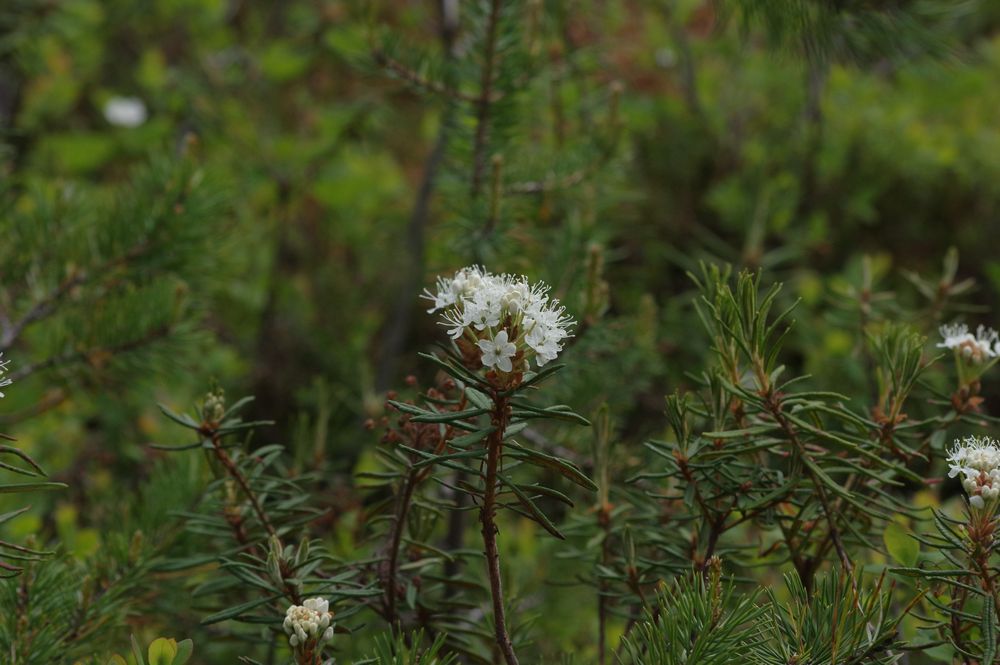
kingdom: Plantae
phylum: Tracheophyta
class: Magnoliopsida
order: Ericales
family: Ericaceae
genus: Rhododendron
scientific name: Rhododendron tomentosum
